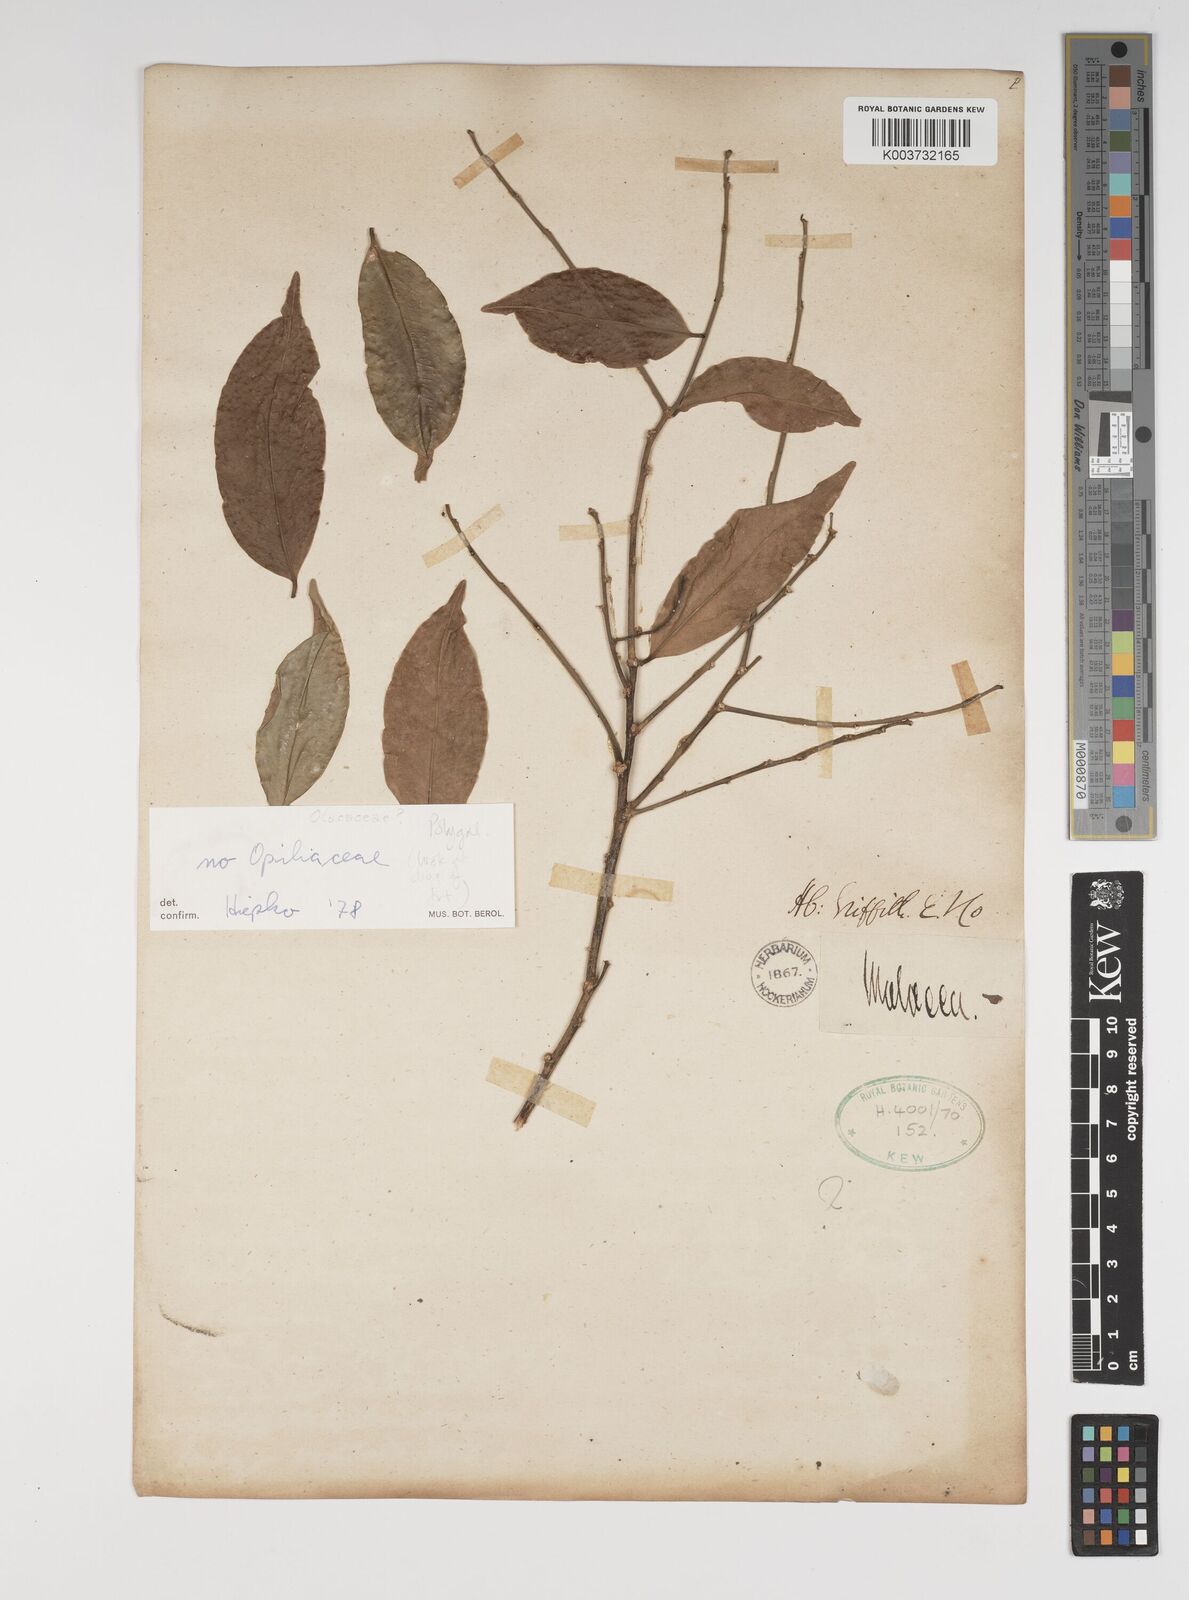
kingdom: Plantae
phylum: Tracheophyta
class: Magnoliopsida
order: Fabales
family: Polygalaceae
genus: Xanthophyllum
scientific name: Xanthophyllum
